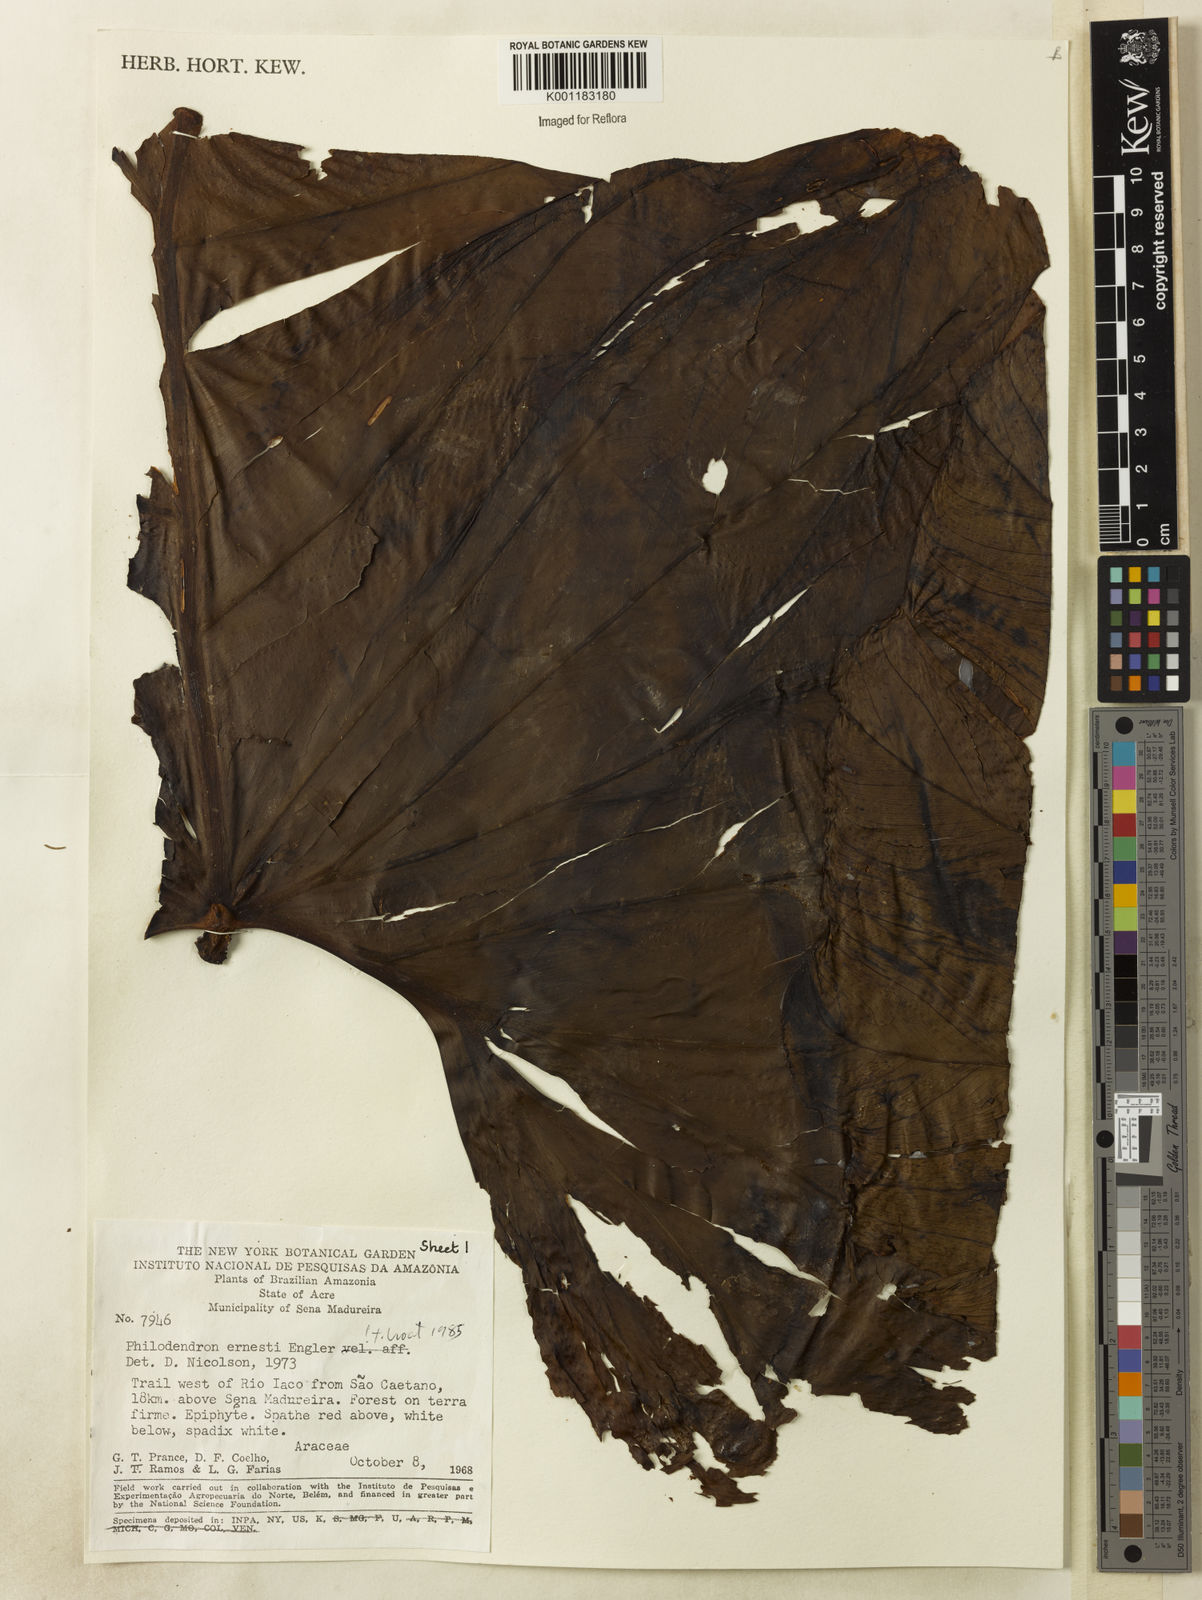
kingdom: Plantae
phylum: Tracheophyta
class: Liliopsida
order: Alismatales
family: Araceae
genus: Philodendron
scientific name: Philodendron ernestii
